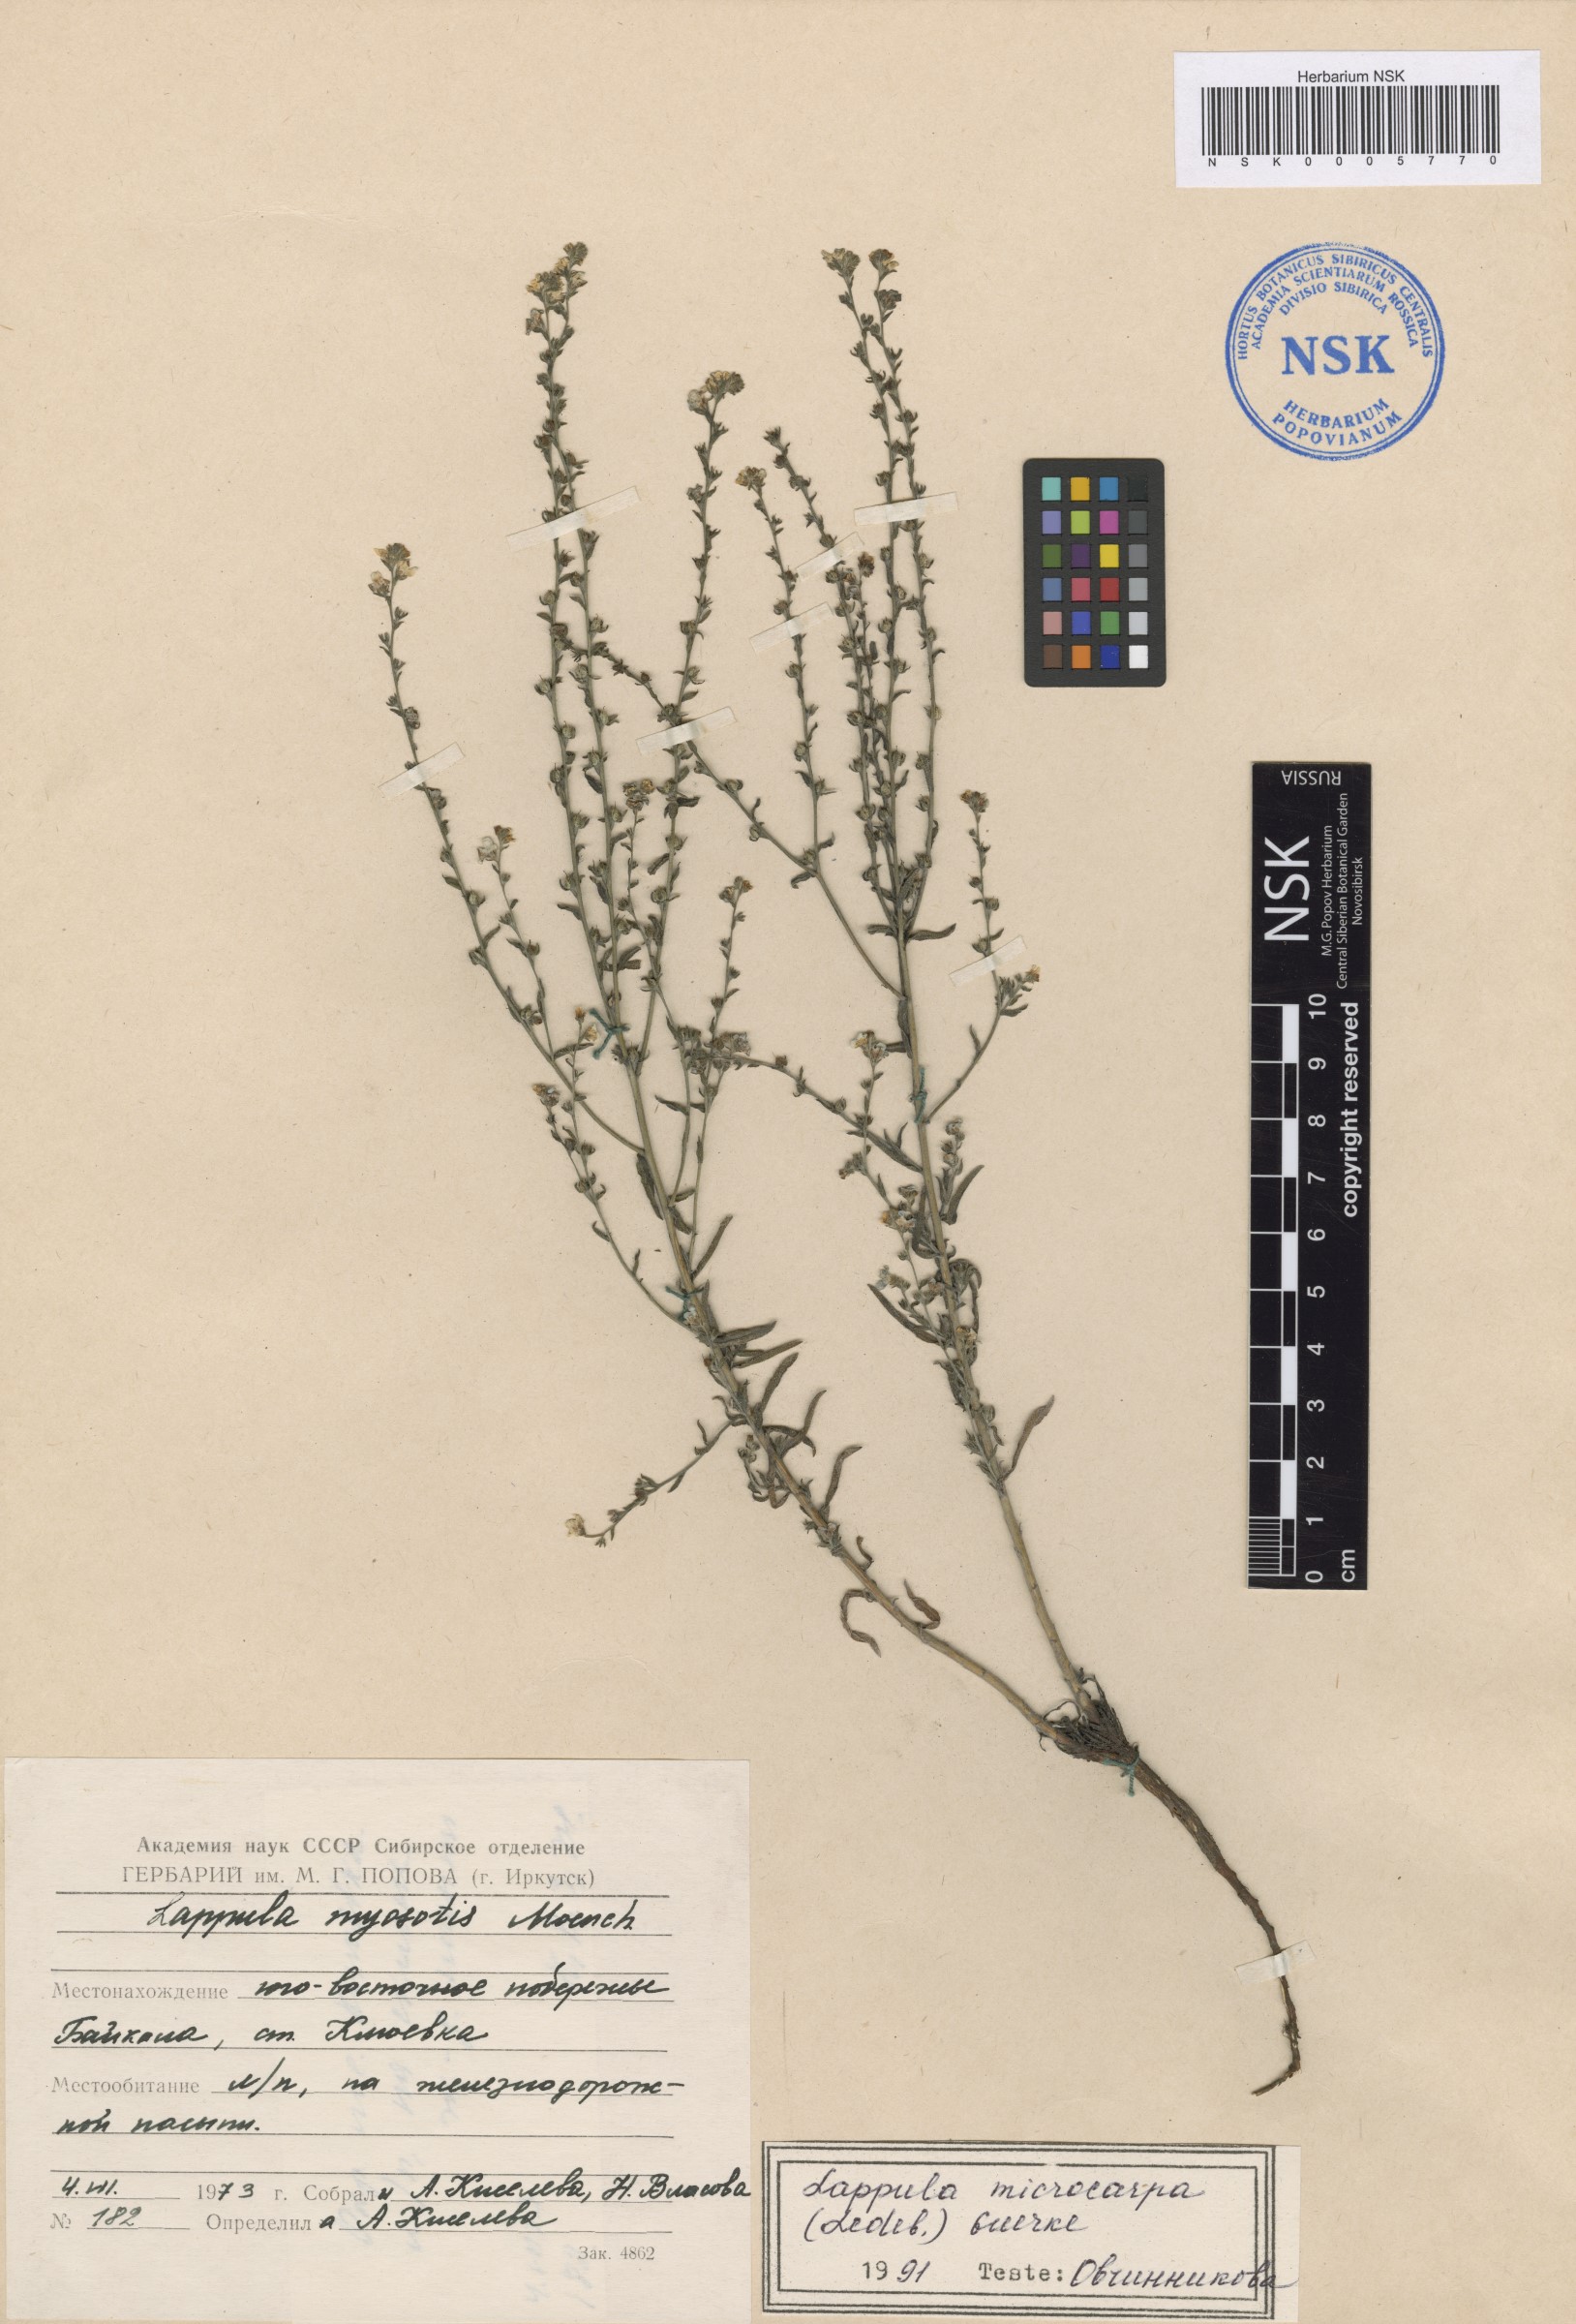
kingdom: Plantae
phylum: Tracheophyta
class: Magnoliopsida
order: Boraginales
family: Boraginaceae
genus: Lappula
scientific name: Lappula microcarpa
